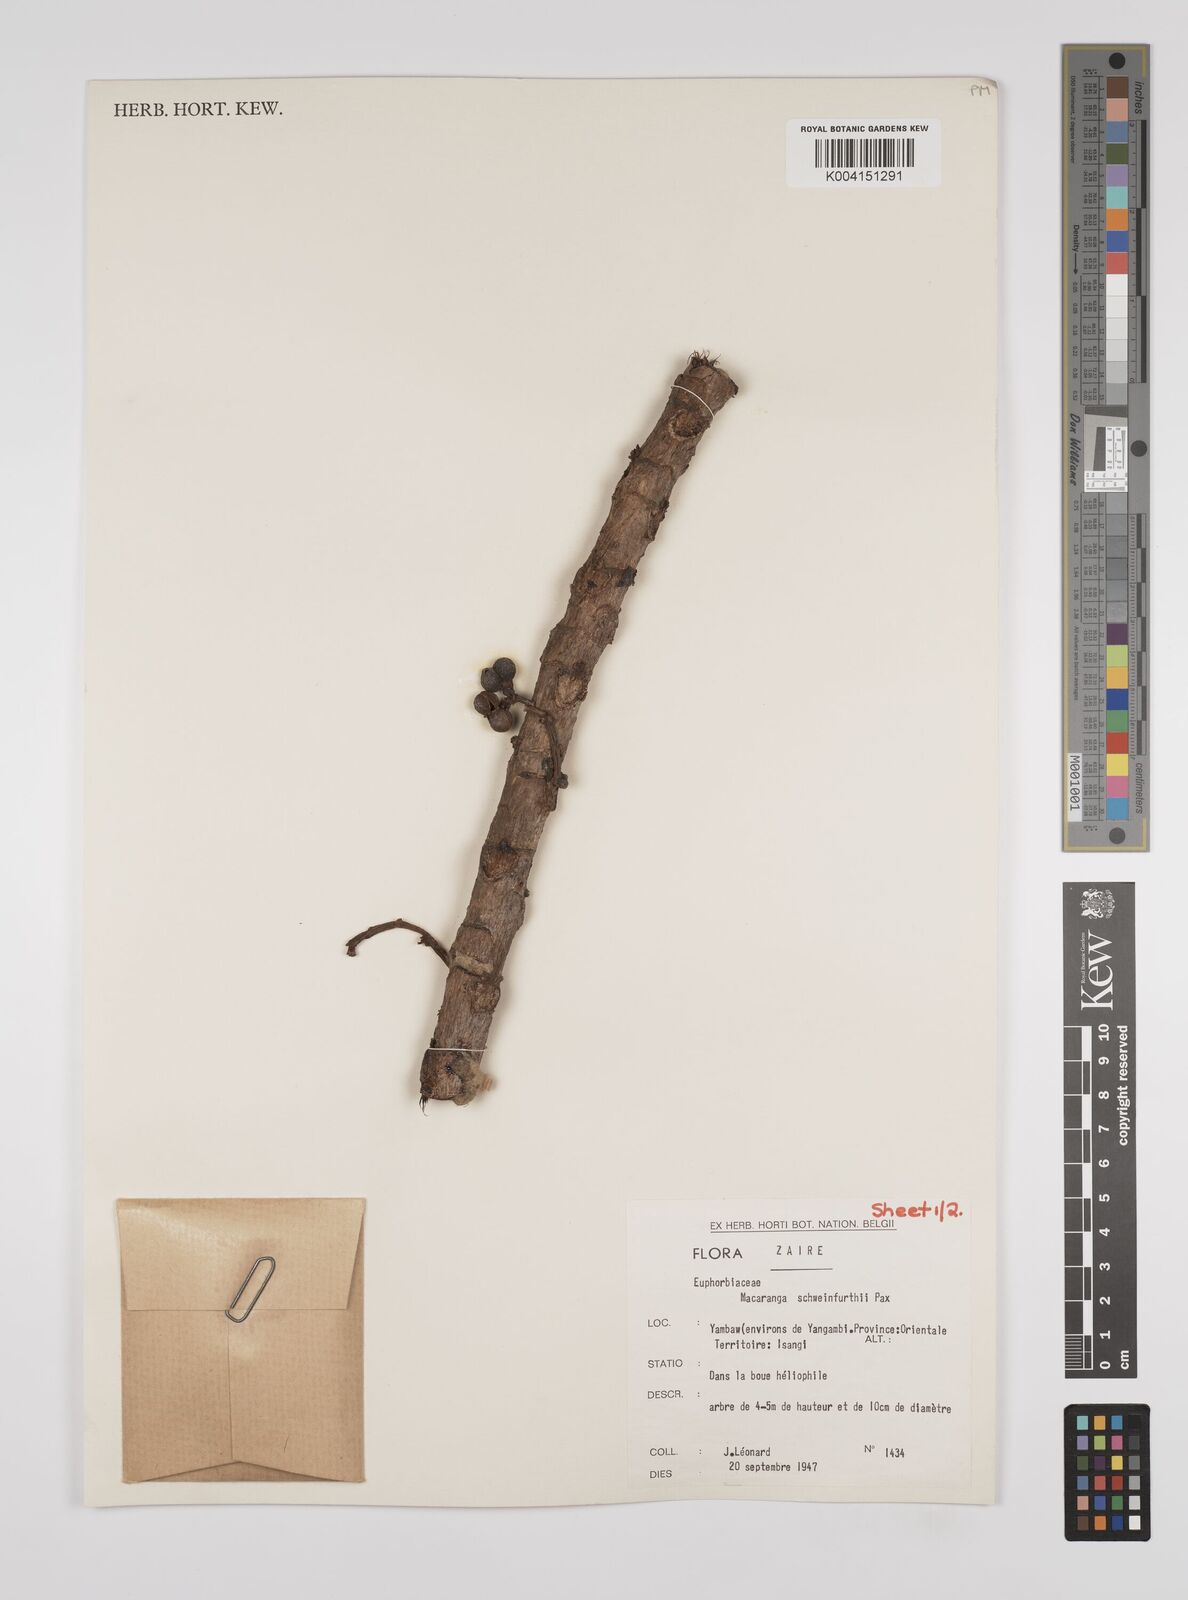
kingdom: Plantae
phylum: Tracheophyta
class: Magnoliopsida
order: Malpighiales
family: Euphorbiaceae
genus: Macaranga
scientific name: Macaranga schweinfurthii
